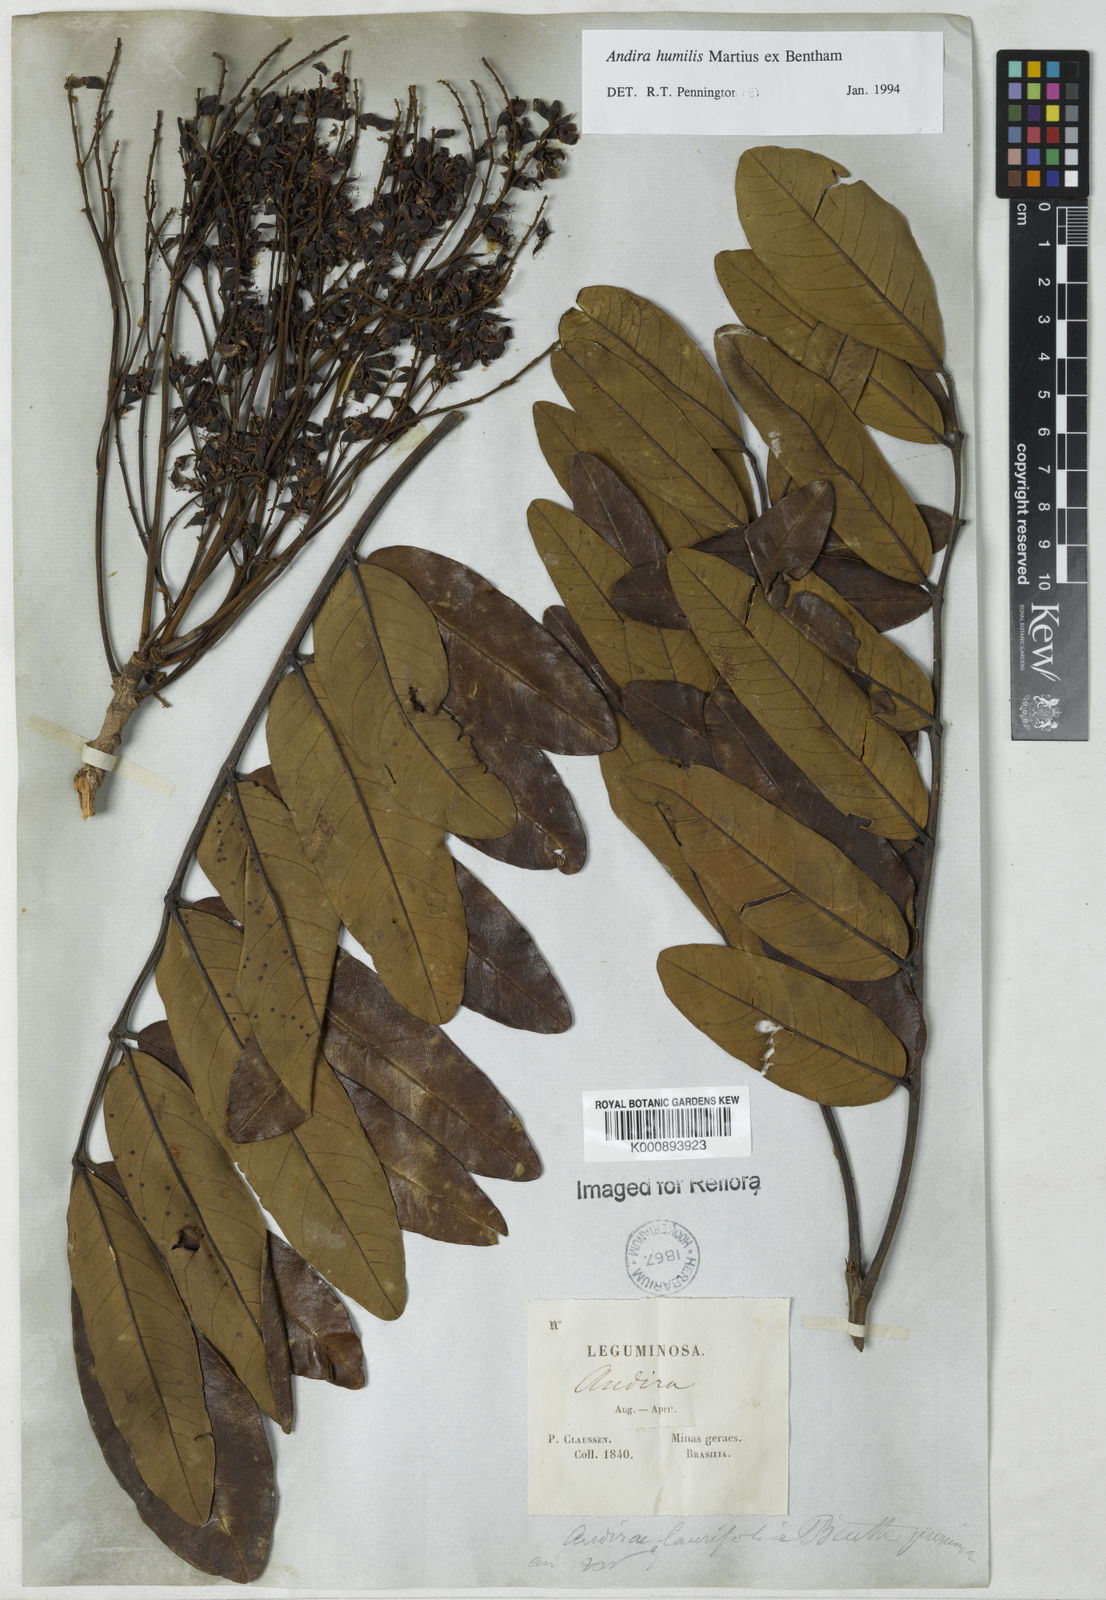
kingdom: Plantae
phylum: Tracheophyta
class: Magnoliopsida
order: Fabales
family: Fabaceae
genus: Andira
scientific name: Andira humilis
